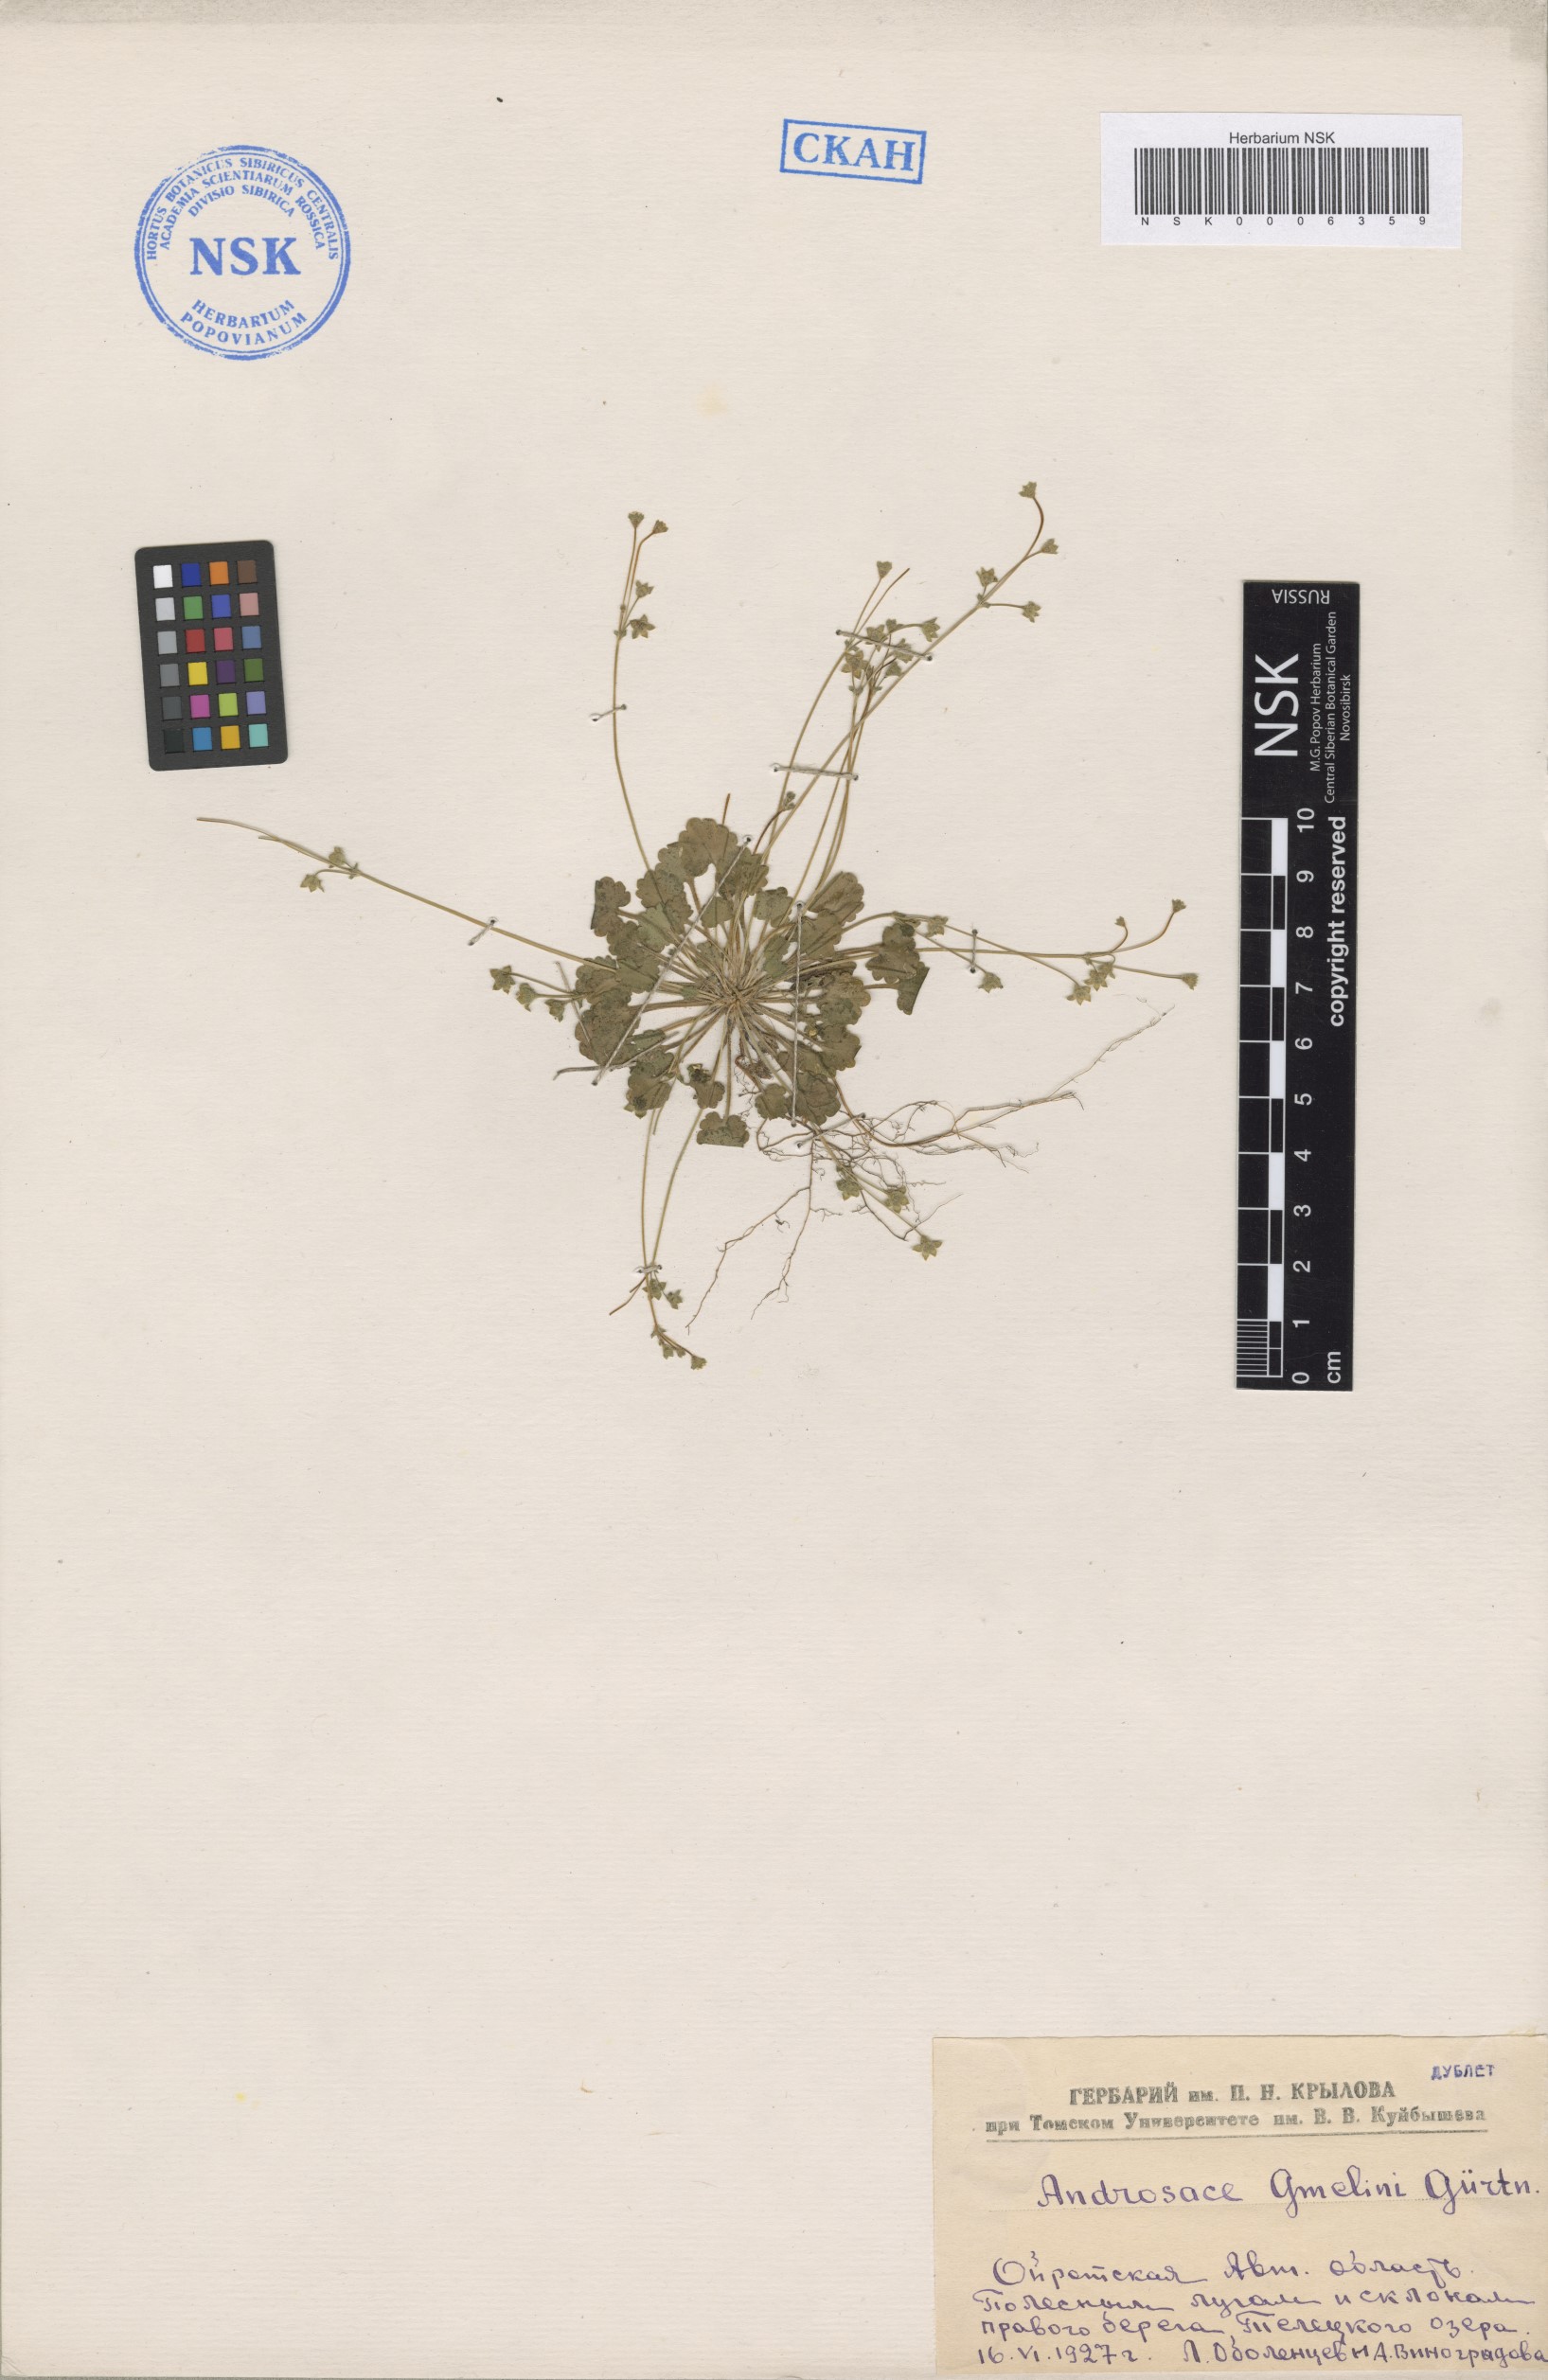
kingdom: Plantae
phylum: Tracheophyta
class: Magnoliopsida
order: Ericales
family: Primulaceae
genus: Androsace
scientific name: Androsace gmelinii
